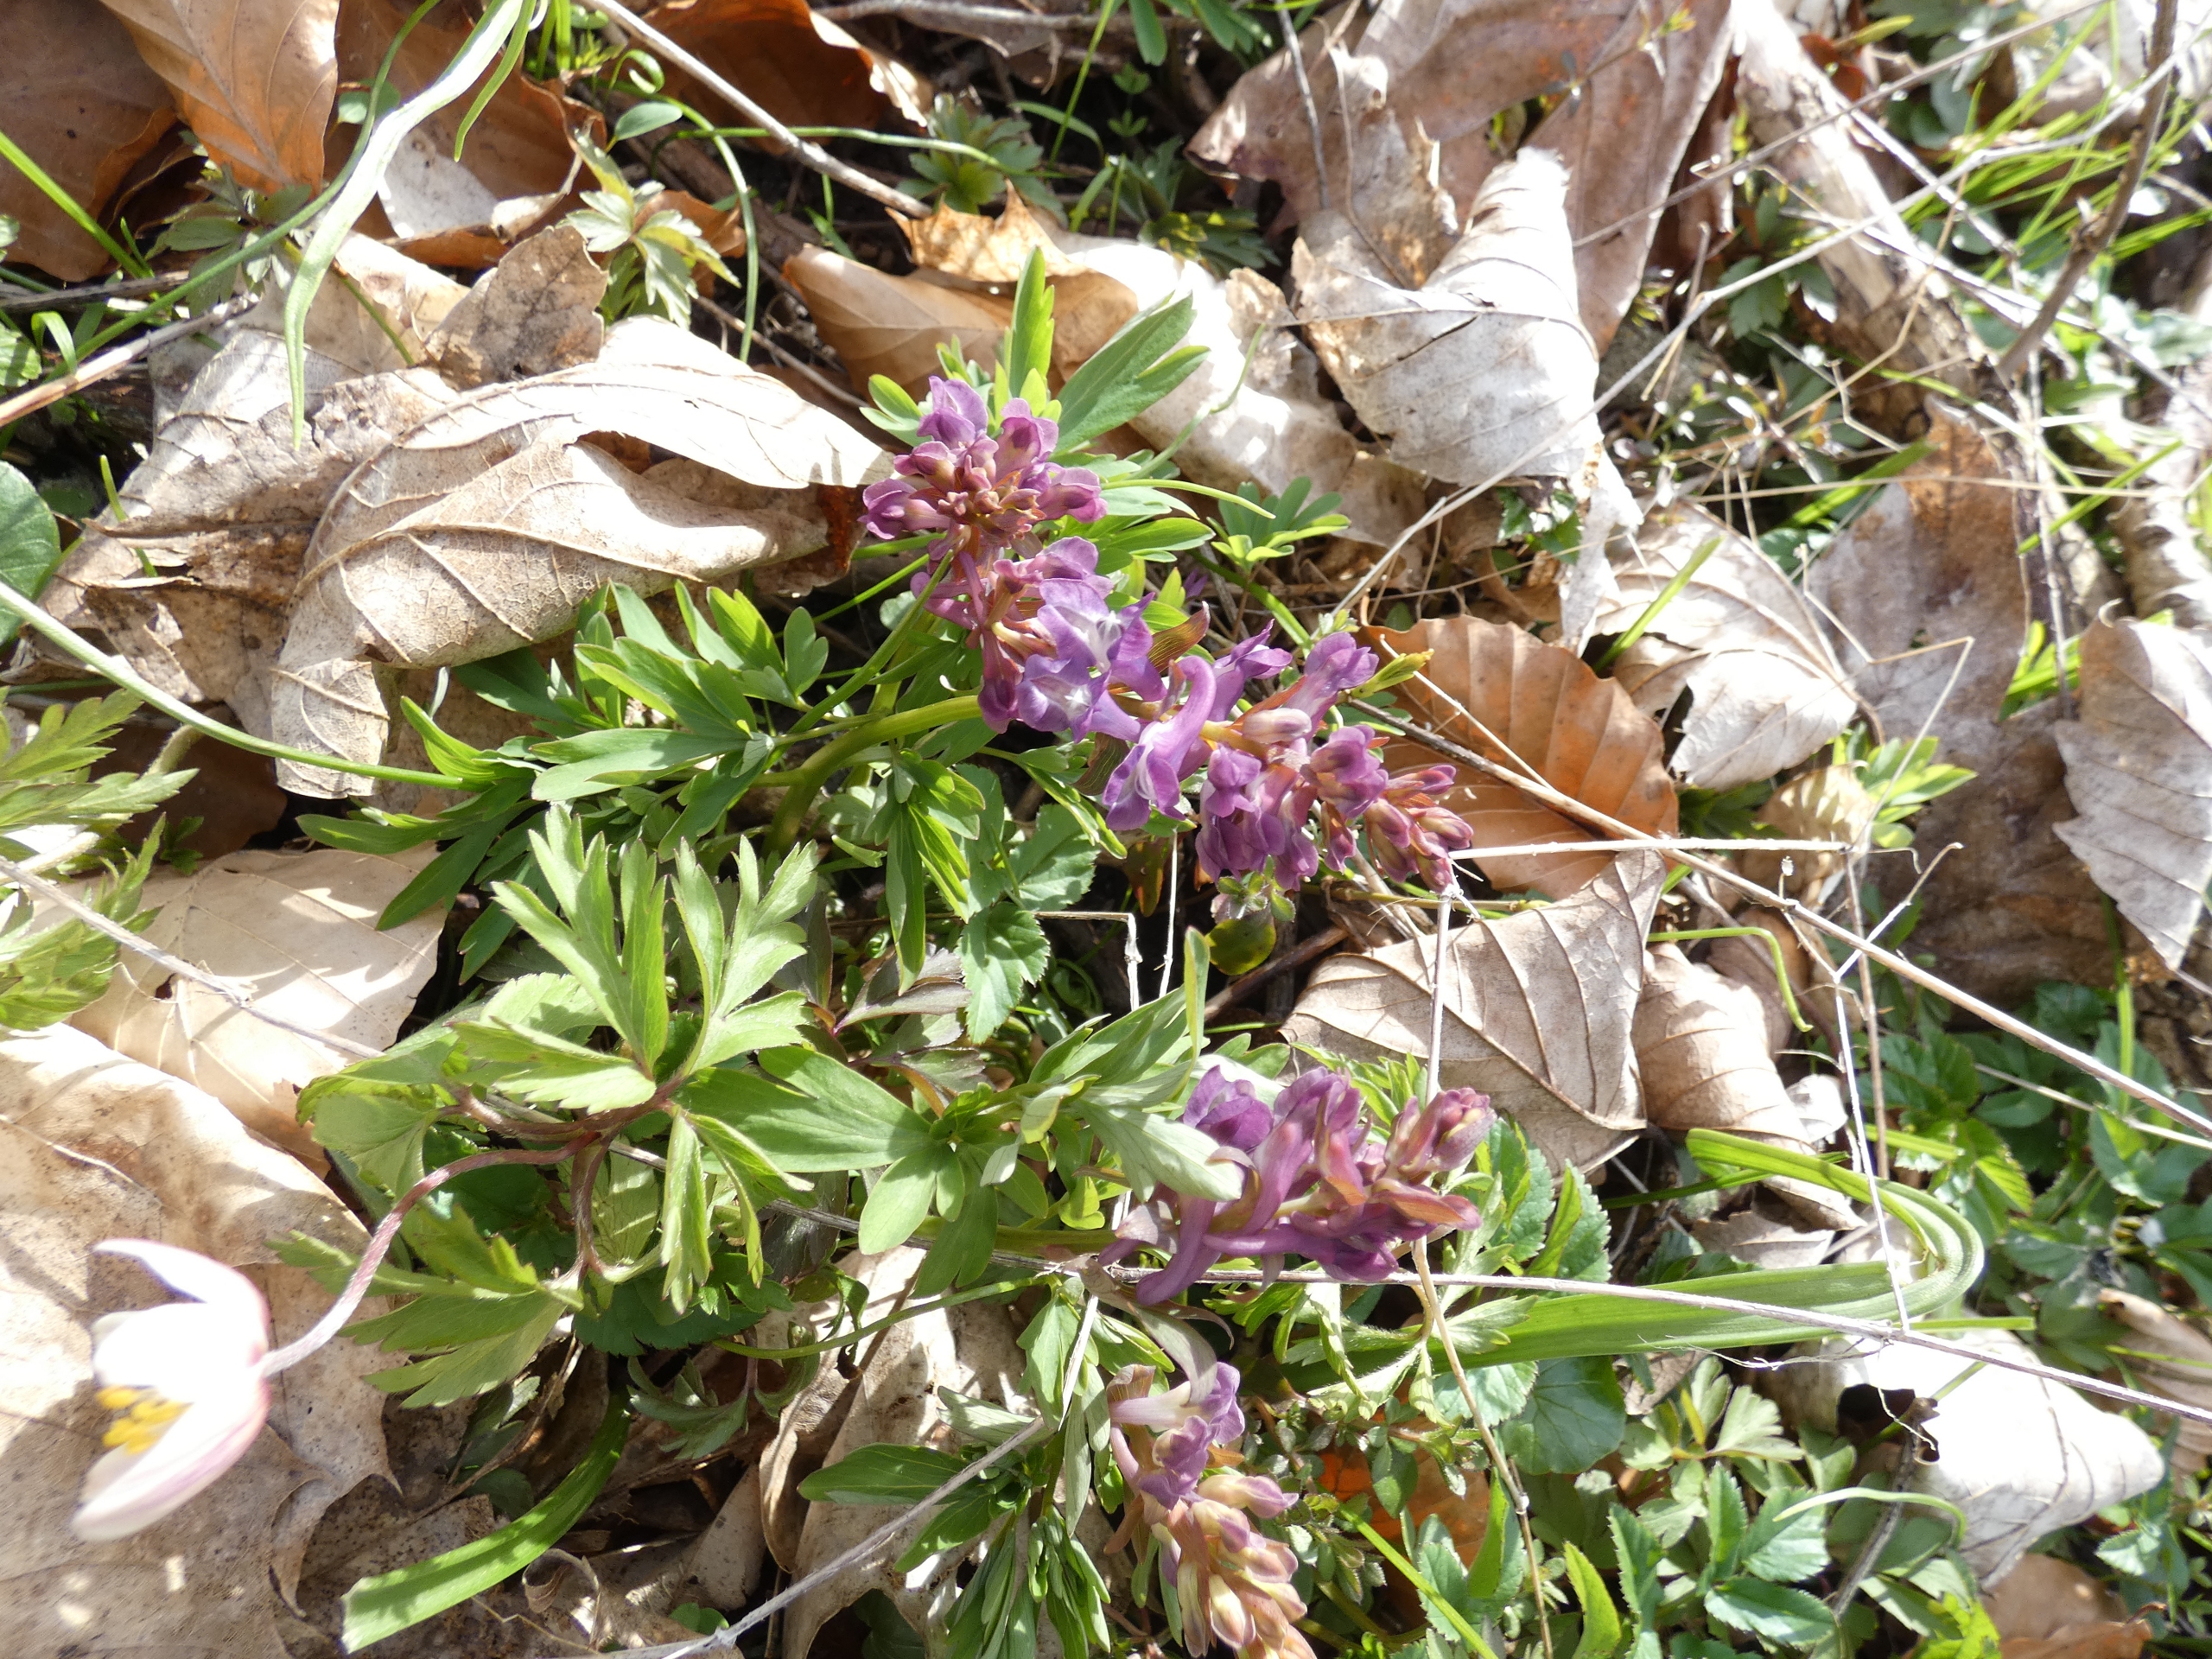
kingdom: Plantae
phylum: Tracheophyta
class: Magnoliopsida
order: Ranunculales
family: Papaveraceae
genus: Corydalis
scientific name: Corydalis cava
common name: Hulrodet lærkespore
